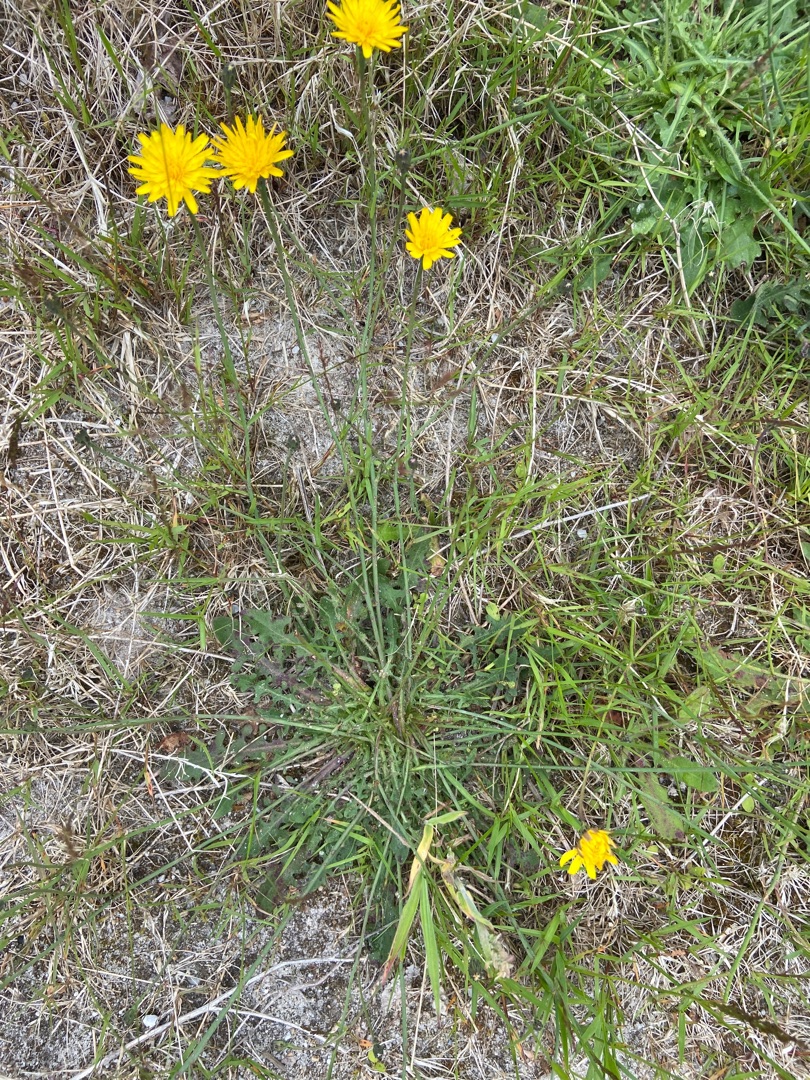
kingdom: Plantae
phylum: Tracheophyta
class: Magnoliopsida
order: Asterales
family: Asteraceae
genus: Hypochaeris
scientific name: Hypochaeris radicata
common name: Almindelig kongepen
